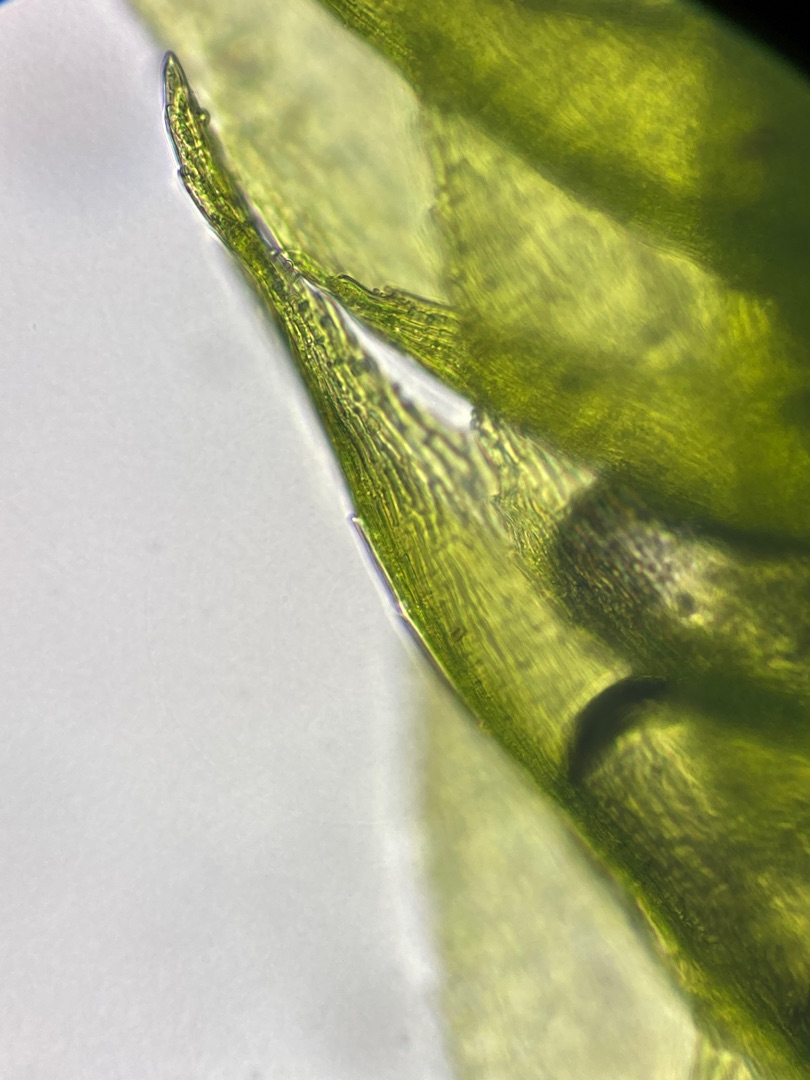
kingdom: Plantae
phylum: Bryophyta
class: Bryopsida
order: Hypnales
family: Brachytheciaceae
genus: Oxyrrhynchium
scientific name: Oxyrrhynchium schleicheri
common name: Vredet vortetand
